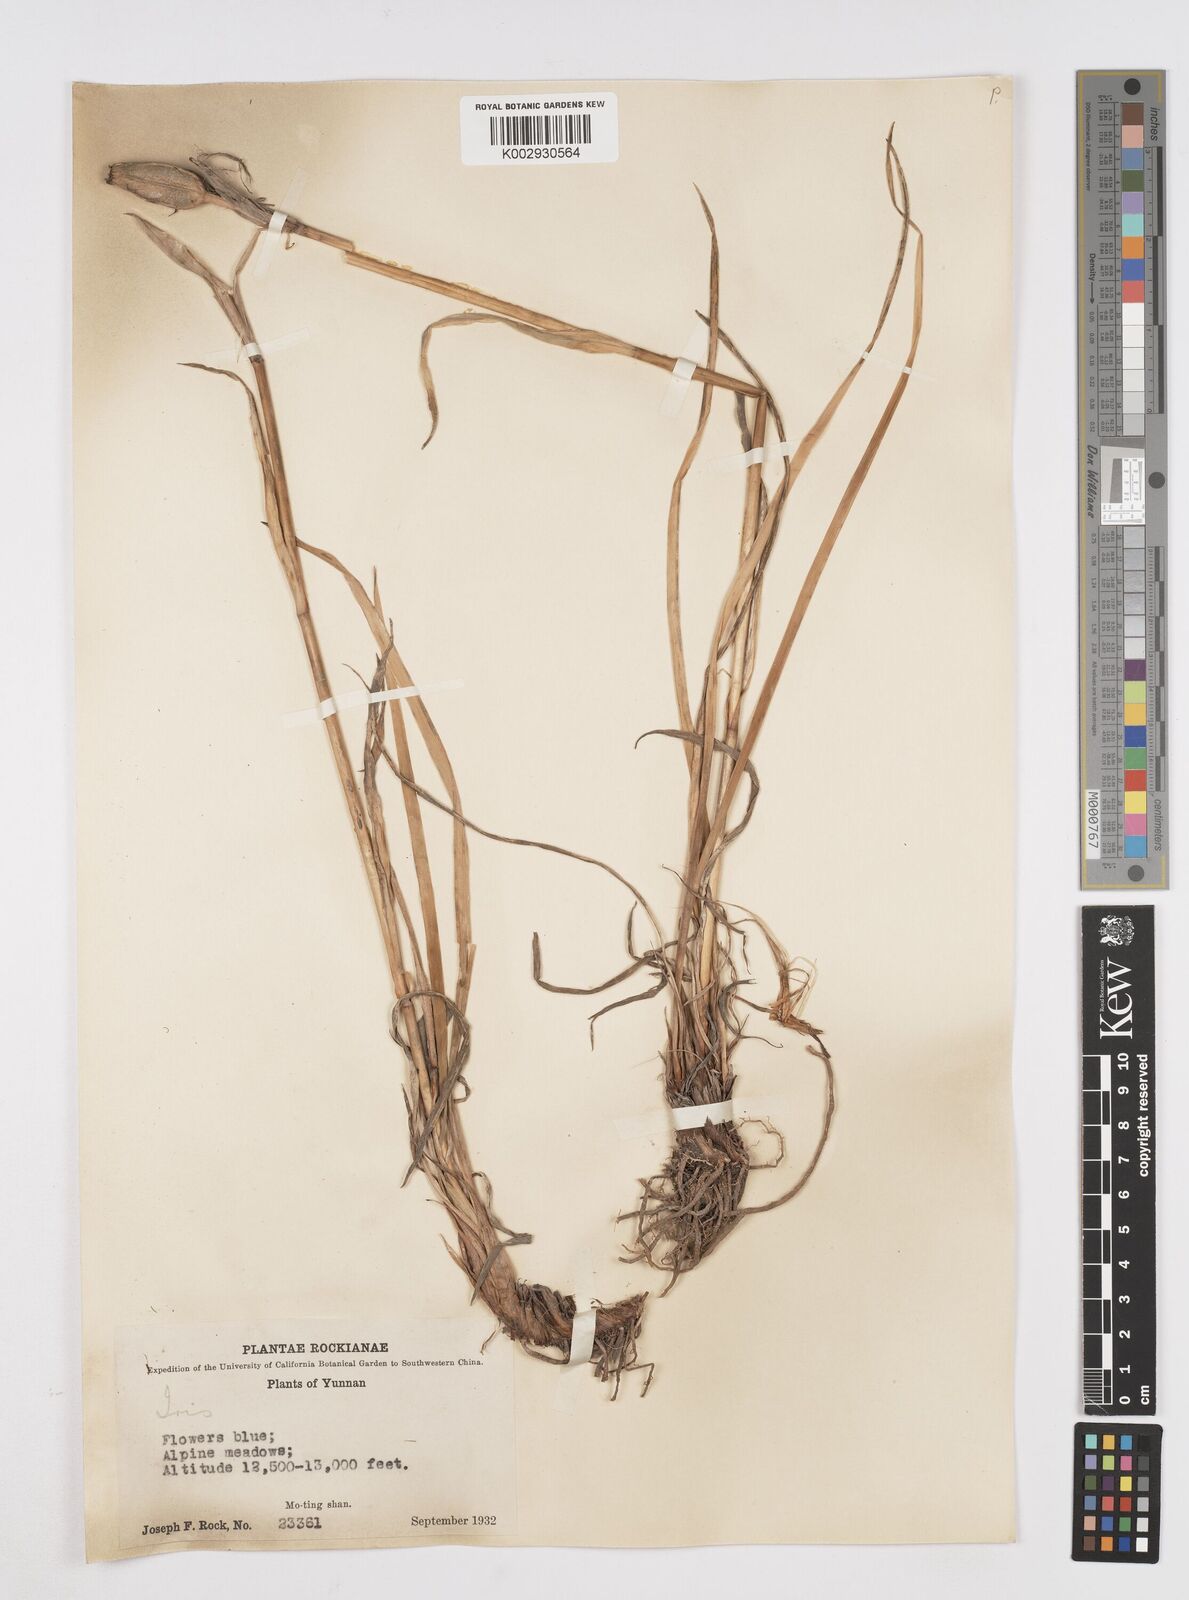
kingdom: Plantae
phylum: Tracheophyta
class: Liliopsida
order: Asparagales
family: Iridaceae
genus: Iris
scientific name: Iris bulleyana
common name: Southwest iris
